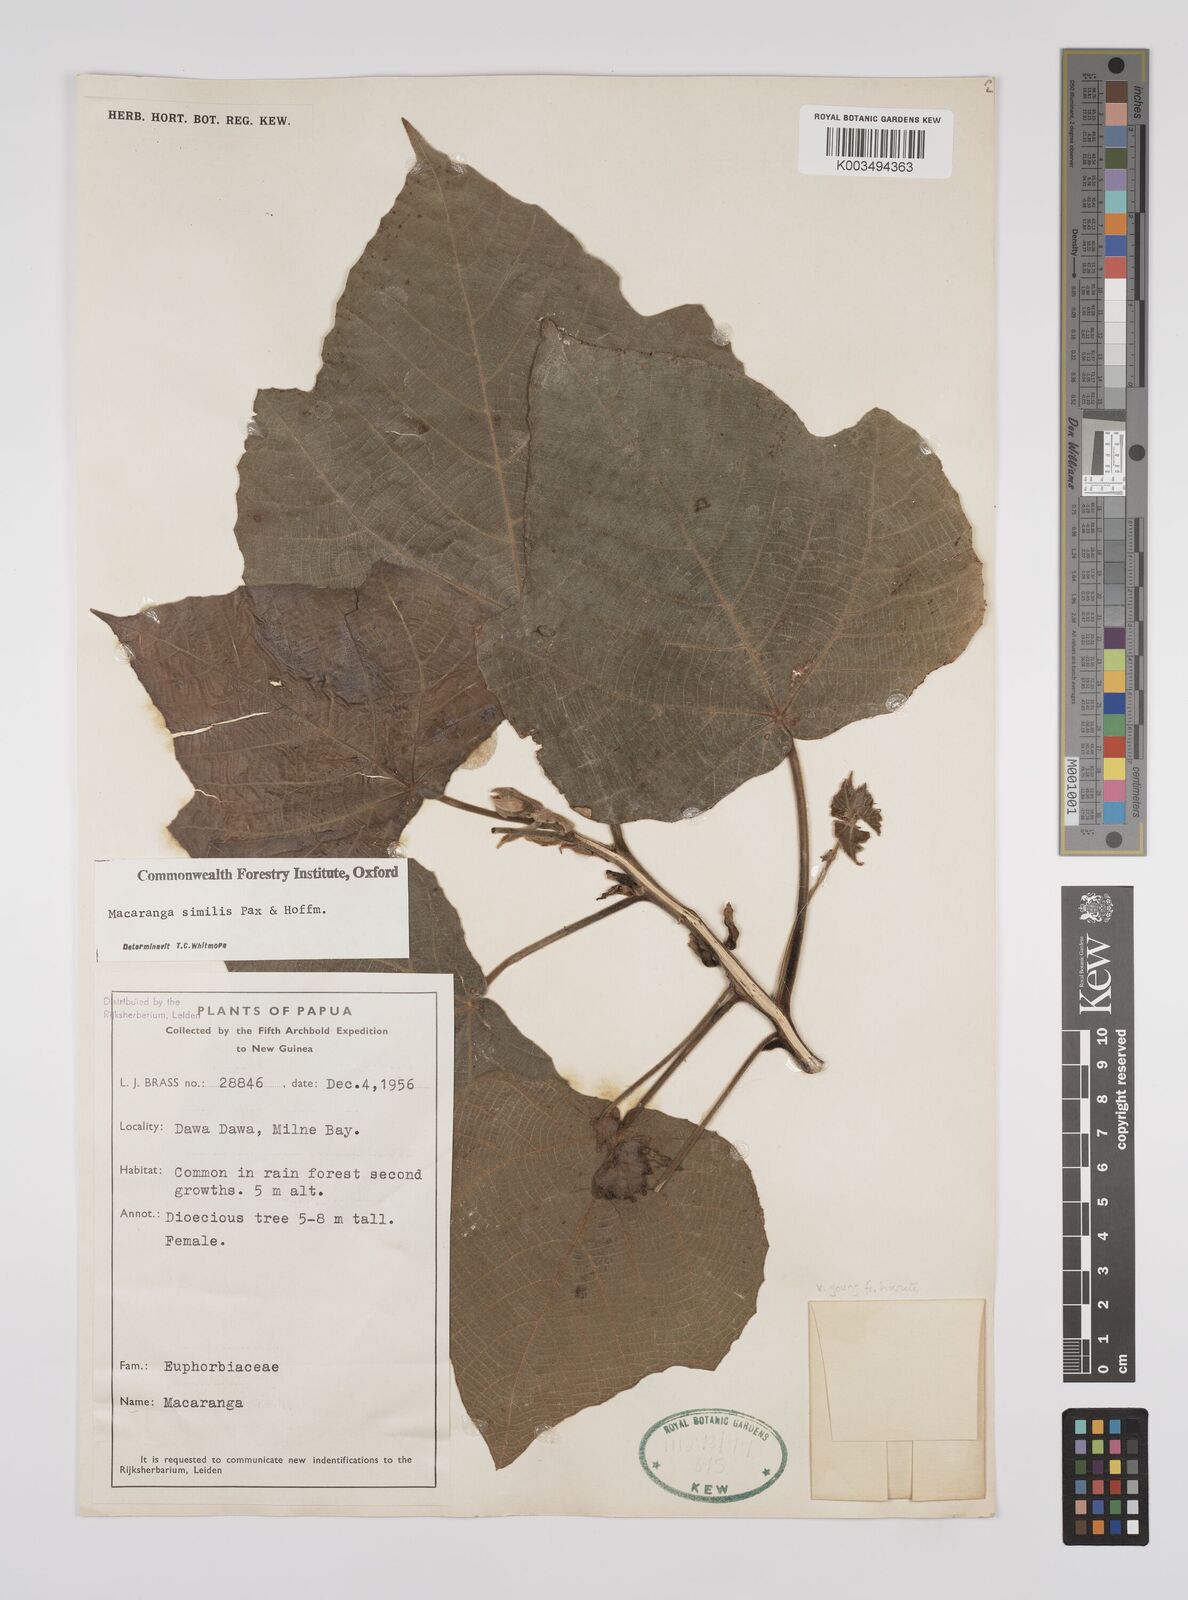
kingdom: Plantae
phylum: Tracheophyta
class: Magnoliopsida
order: Malpighiales
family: Euphorbiaceae
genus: Macaranga
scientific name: Macaranga similis
